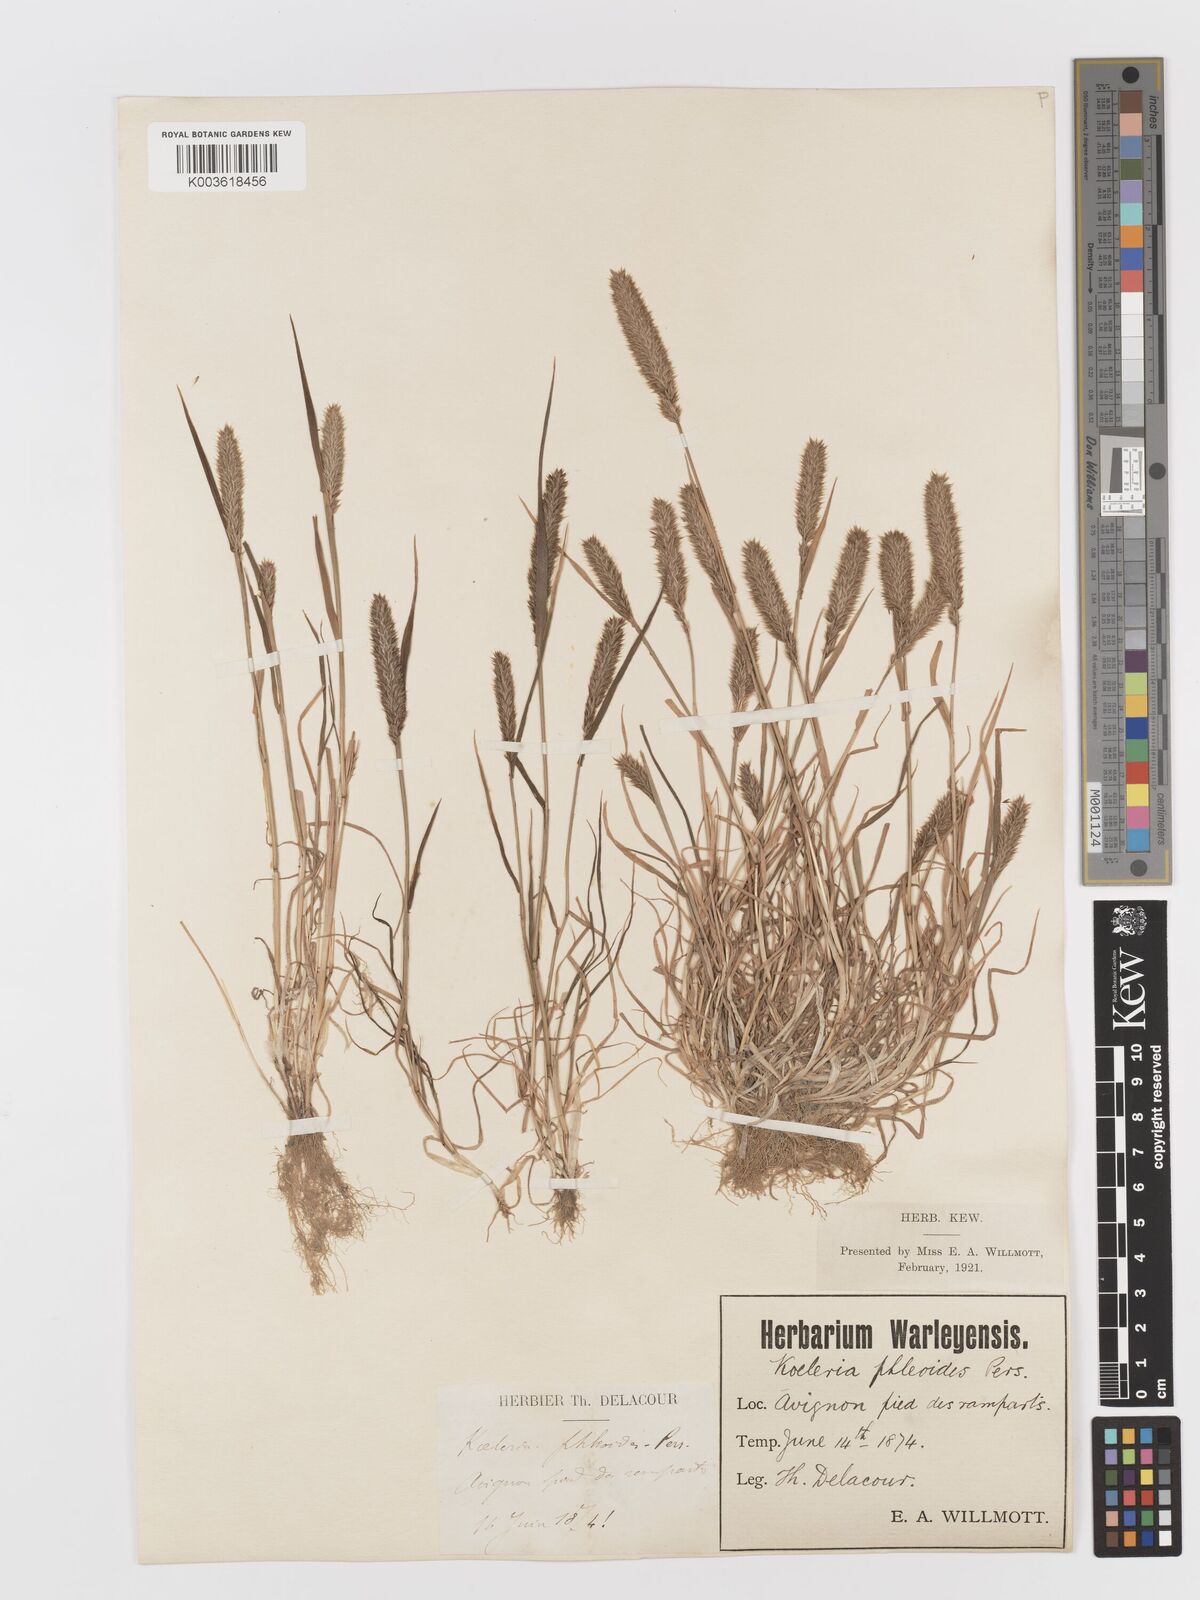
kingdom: Plantae
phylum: Tracheophyta
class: Liliopsida
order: Poales
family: Poaceae
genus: Rostraria
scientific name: Rostraria cristata
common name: Mediterranean hair-grass
